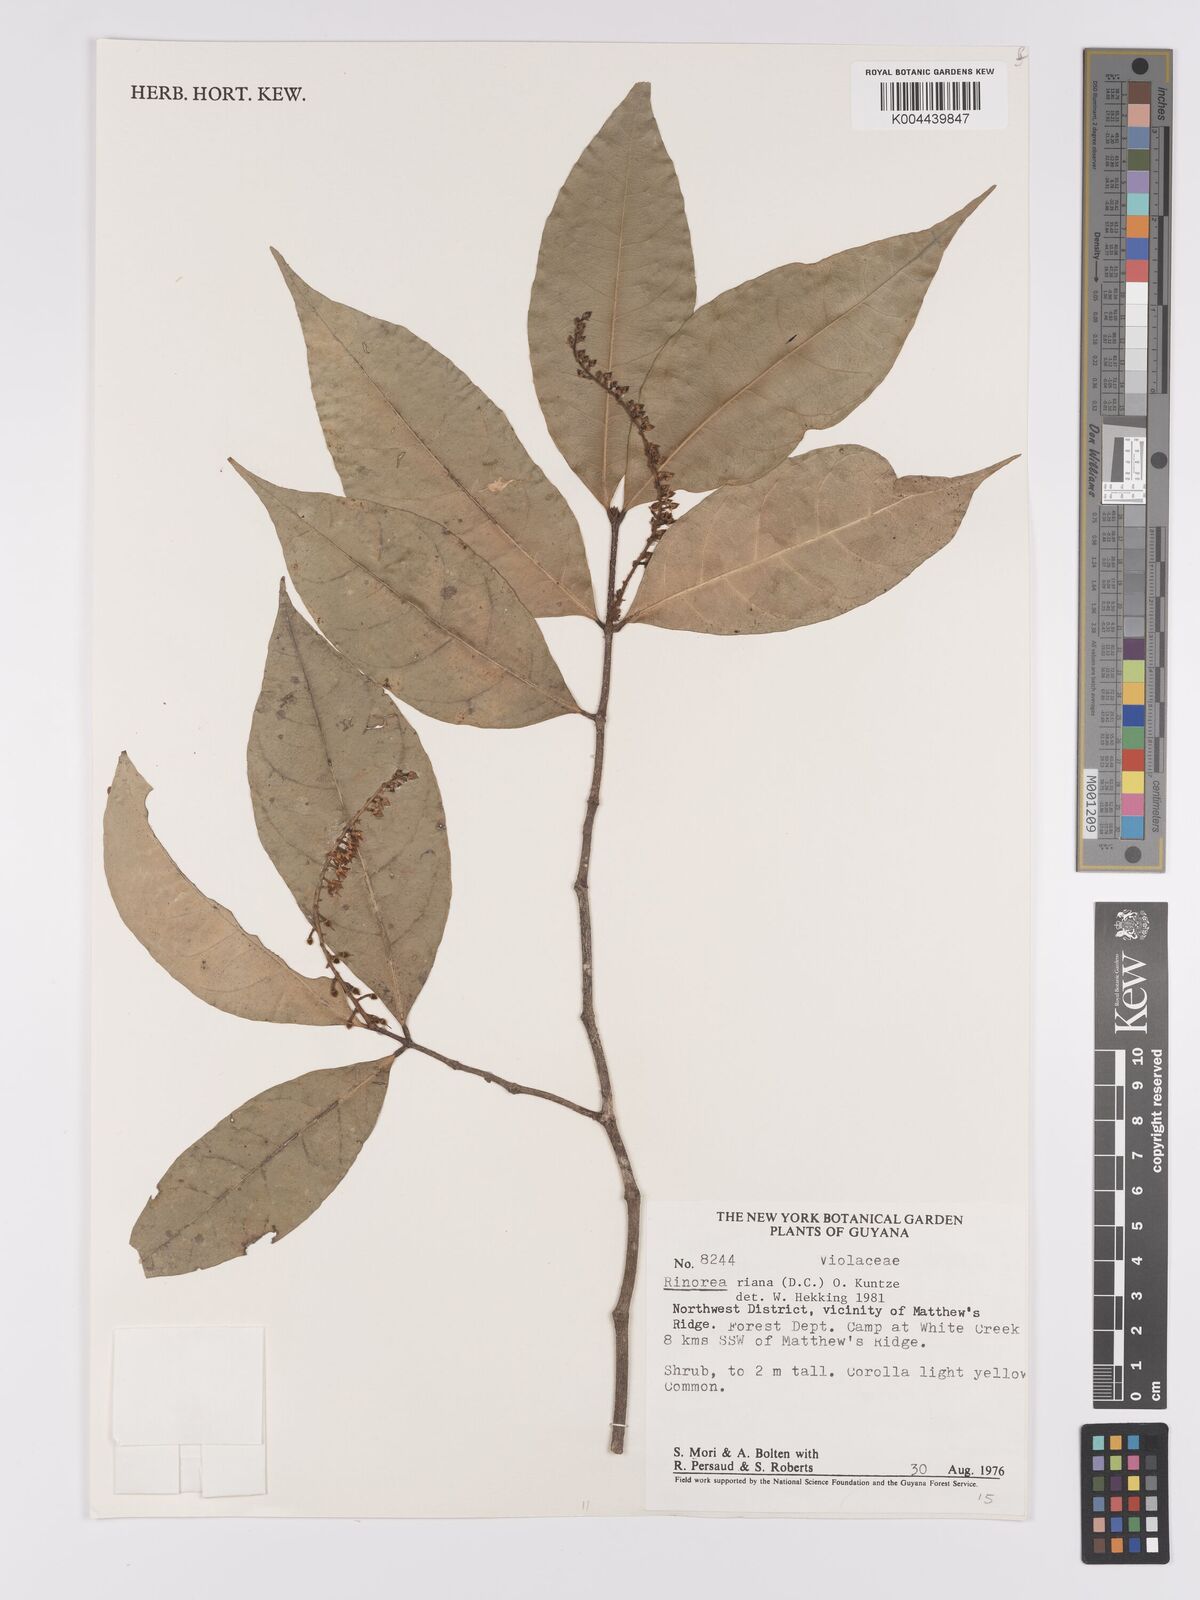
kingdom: Plantae
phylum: Tracheophyta
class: Magnoliopsida
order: Malpighiales
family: Violaceae
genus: Rinorea
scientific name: Rinorea riana
